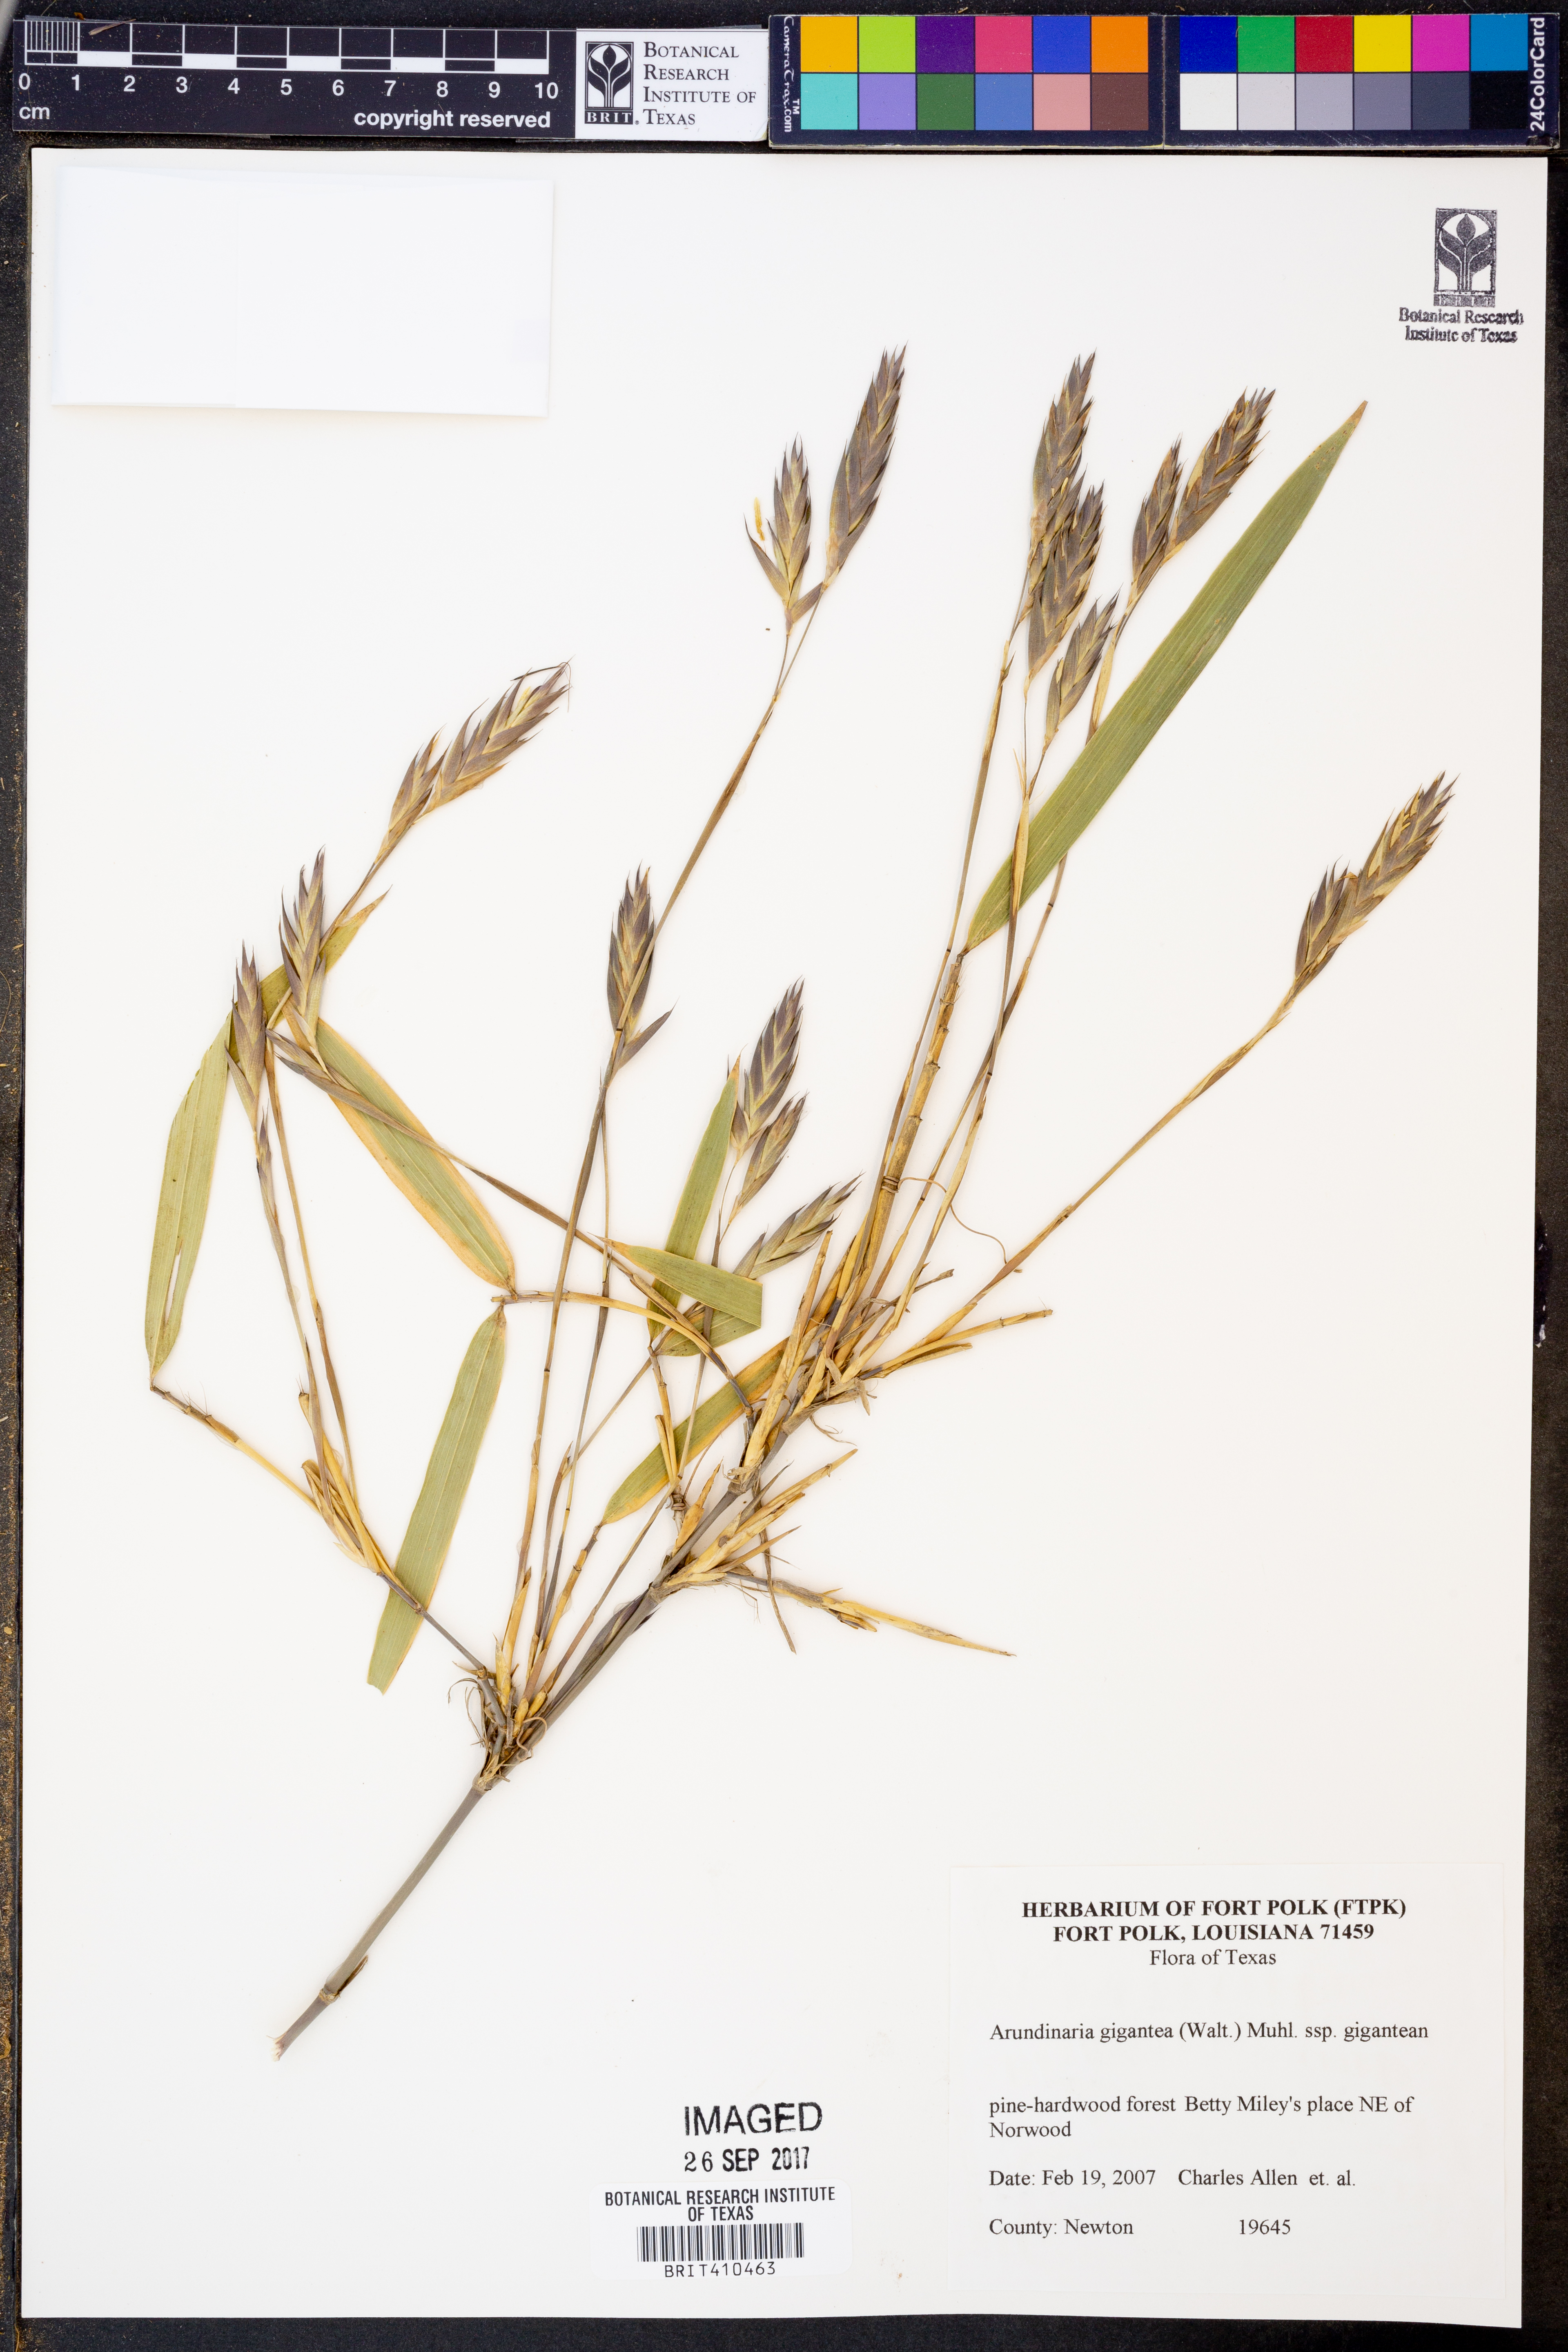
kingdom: Plantae
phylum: Tracheophyta
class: Liliopsida
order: Poales
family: Poaceae
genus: Arundinaria
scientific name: Arundinaria gigantea
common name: Giant cane
